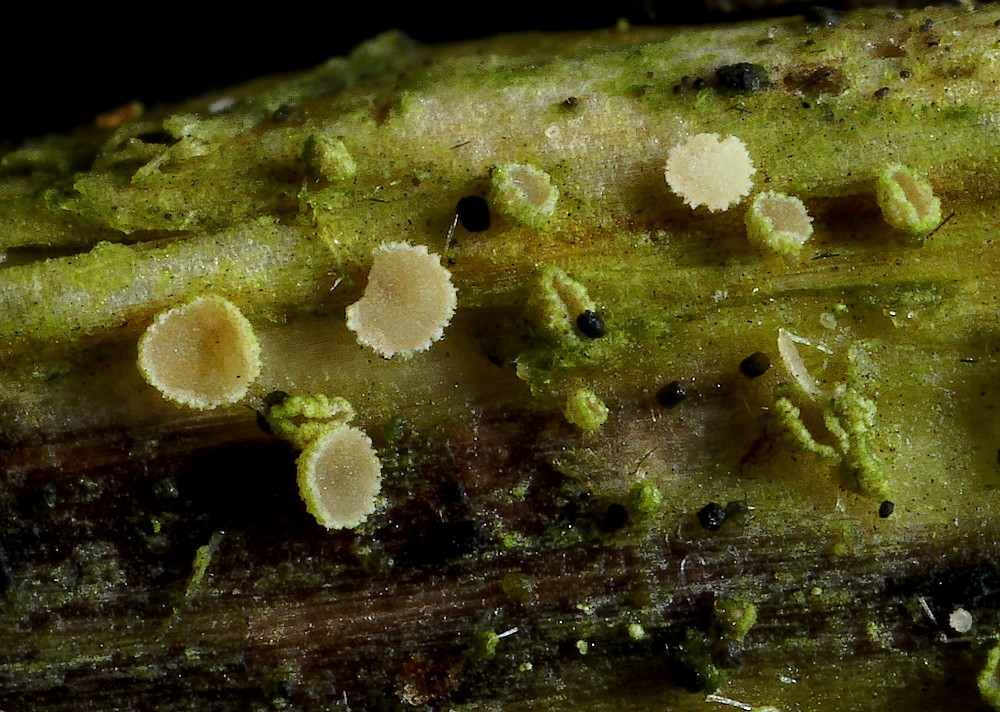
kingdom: Fungi
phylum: Ascomycota
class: Leotiomycetes
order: Helotiales
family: Hyaloscyphaceae
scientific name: Hyaloscyphaceae
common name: frynseskivefamilien
